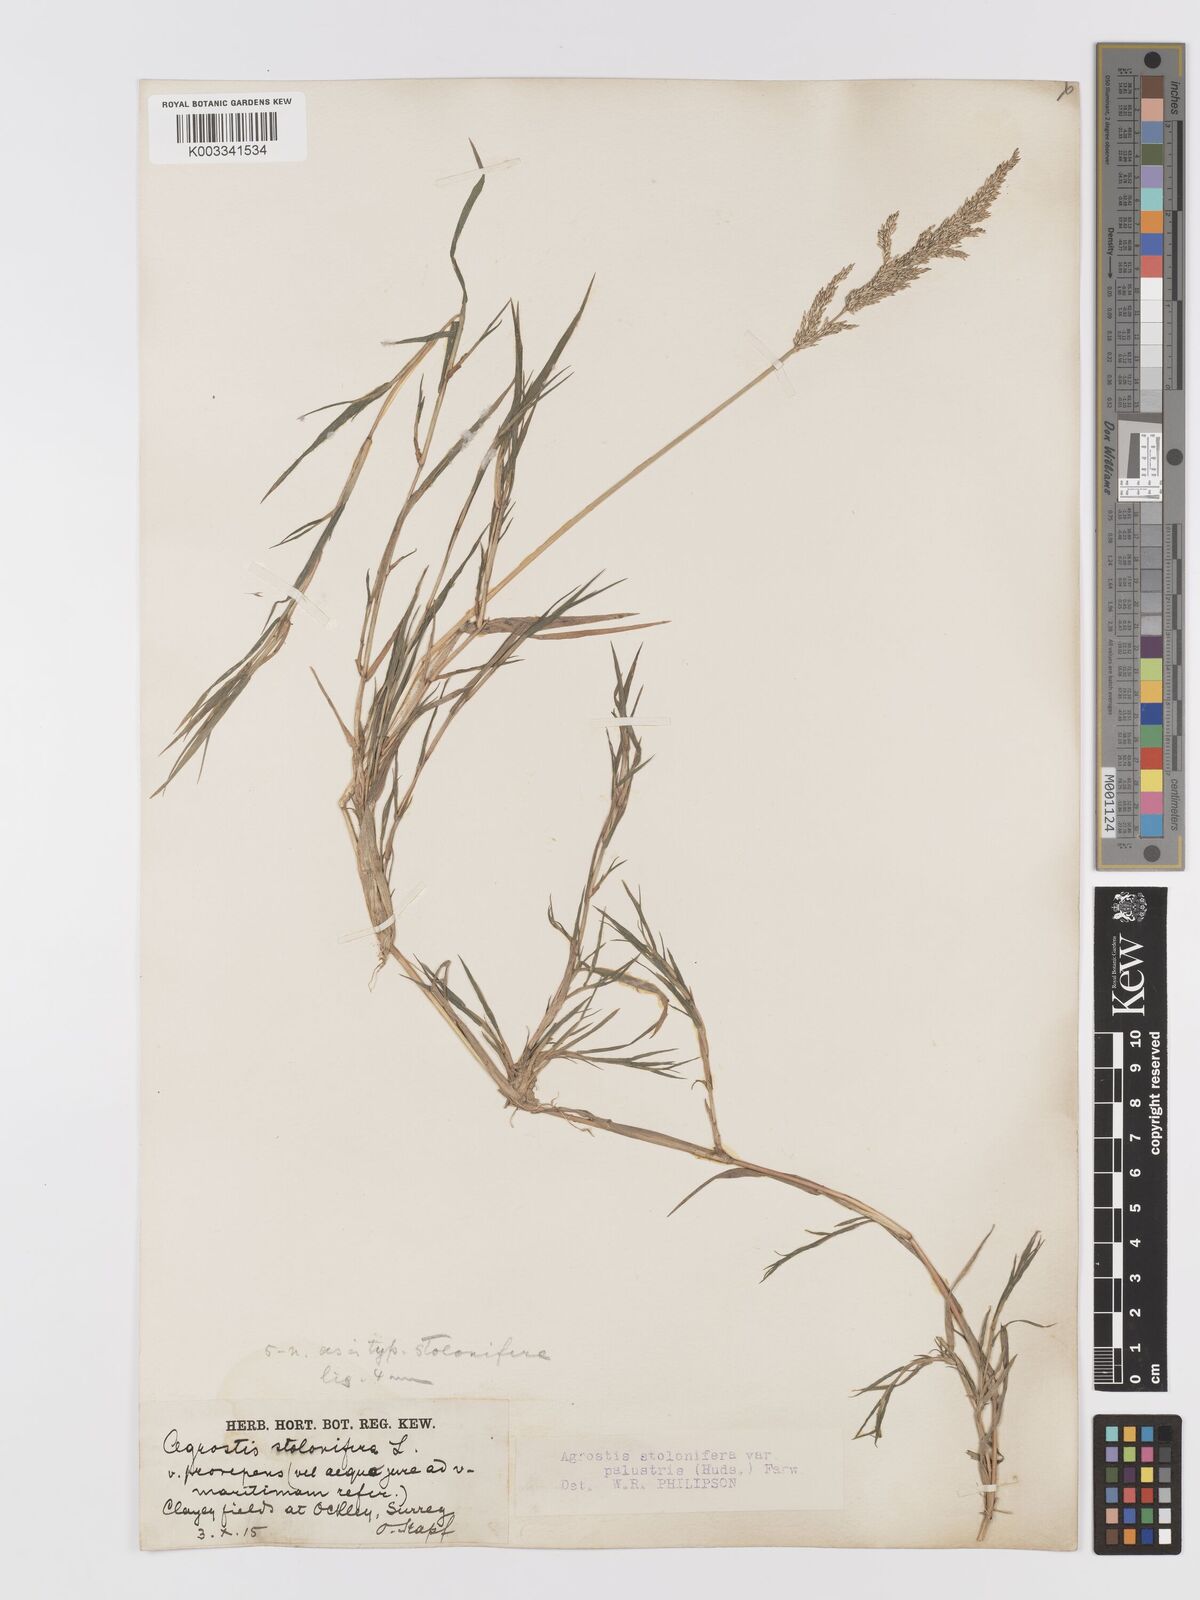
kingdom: Plantae
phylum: Tracheophyta
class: Liliopsida
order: Poales
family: Poaceae
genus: Agrostis
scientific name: Agrostis stolonifera
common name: Creeping bentgrass
